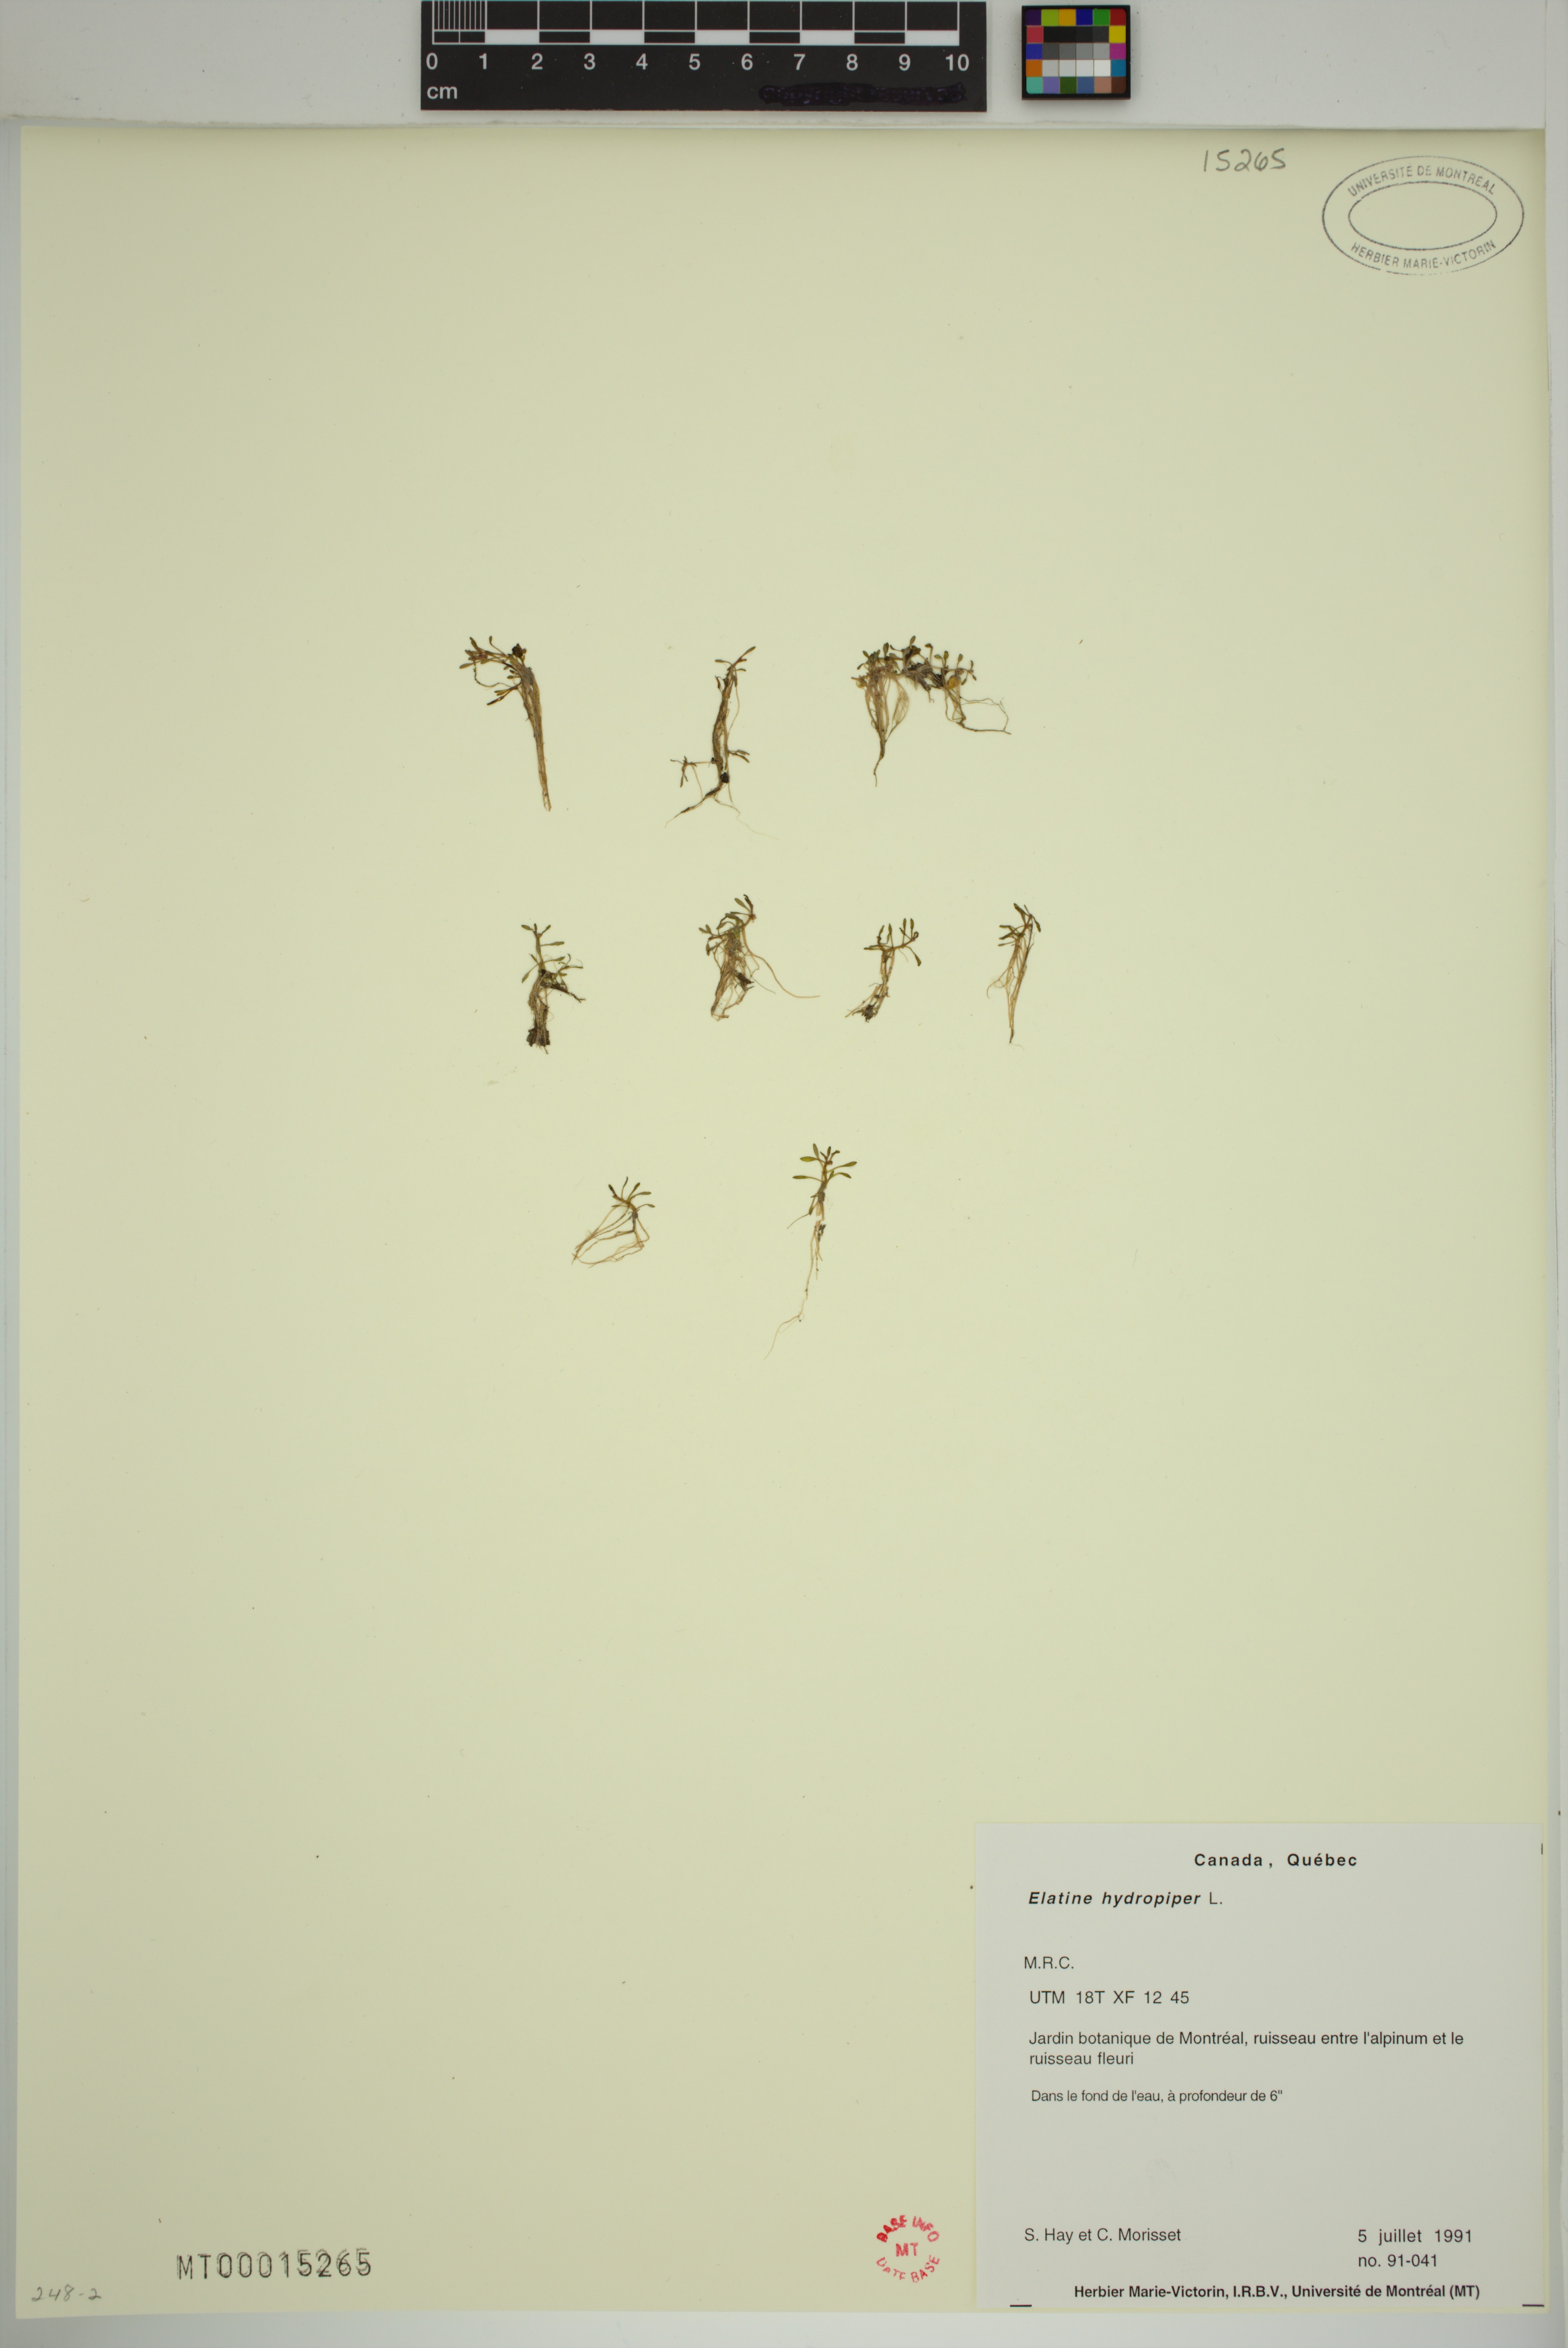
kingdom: Plantae
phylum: Tracheophyta
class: Magnoliopsida
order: Malpighiales
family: Elatinaceae
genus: Elatine
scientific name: Elatine hydropiper
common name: Eight-stamened waterwort
